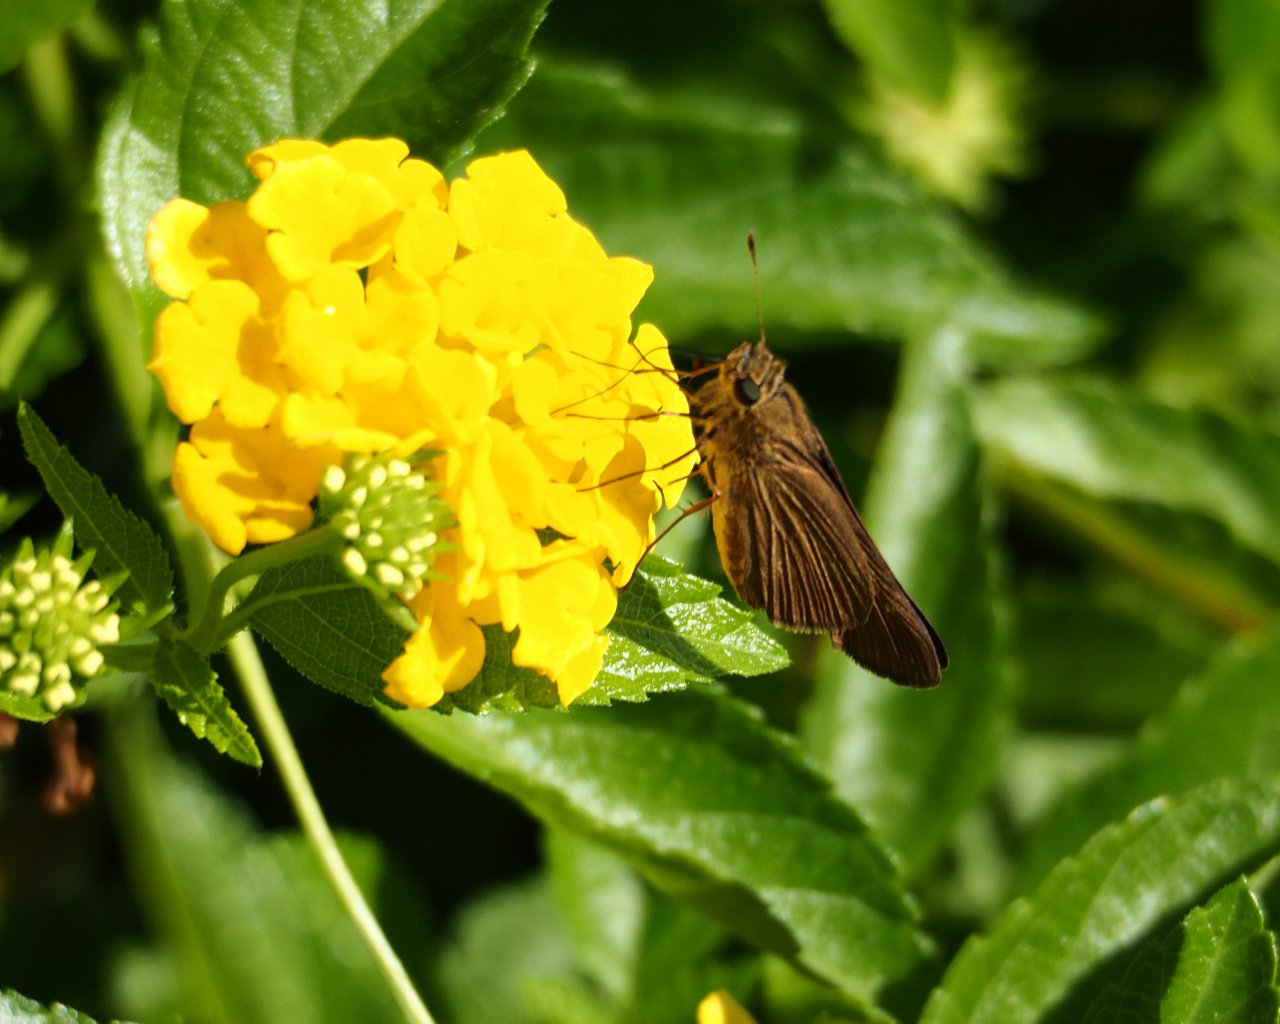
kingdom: Animalia
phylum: Arthropoda
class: Insecta
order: Lepidoptera
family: Hesperiidae
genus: Panoquina
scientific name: Panoquina ocola
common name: Ocola Skipper
